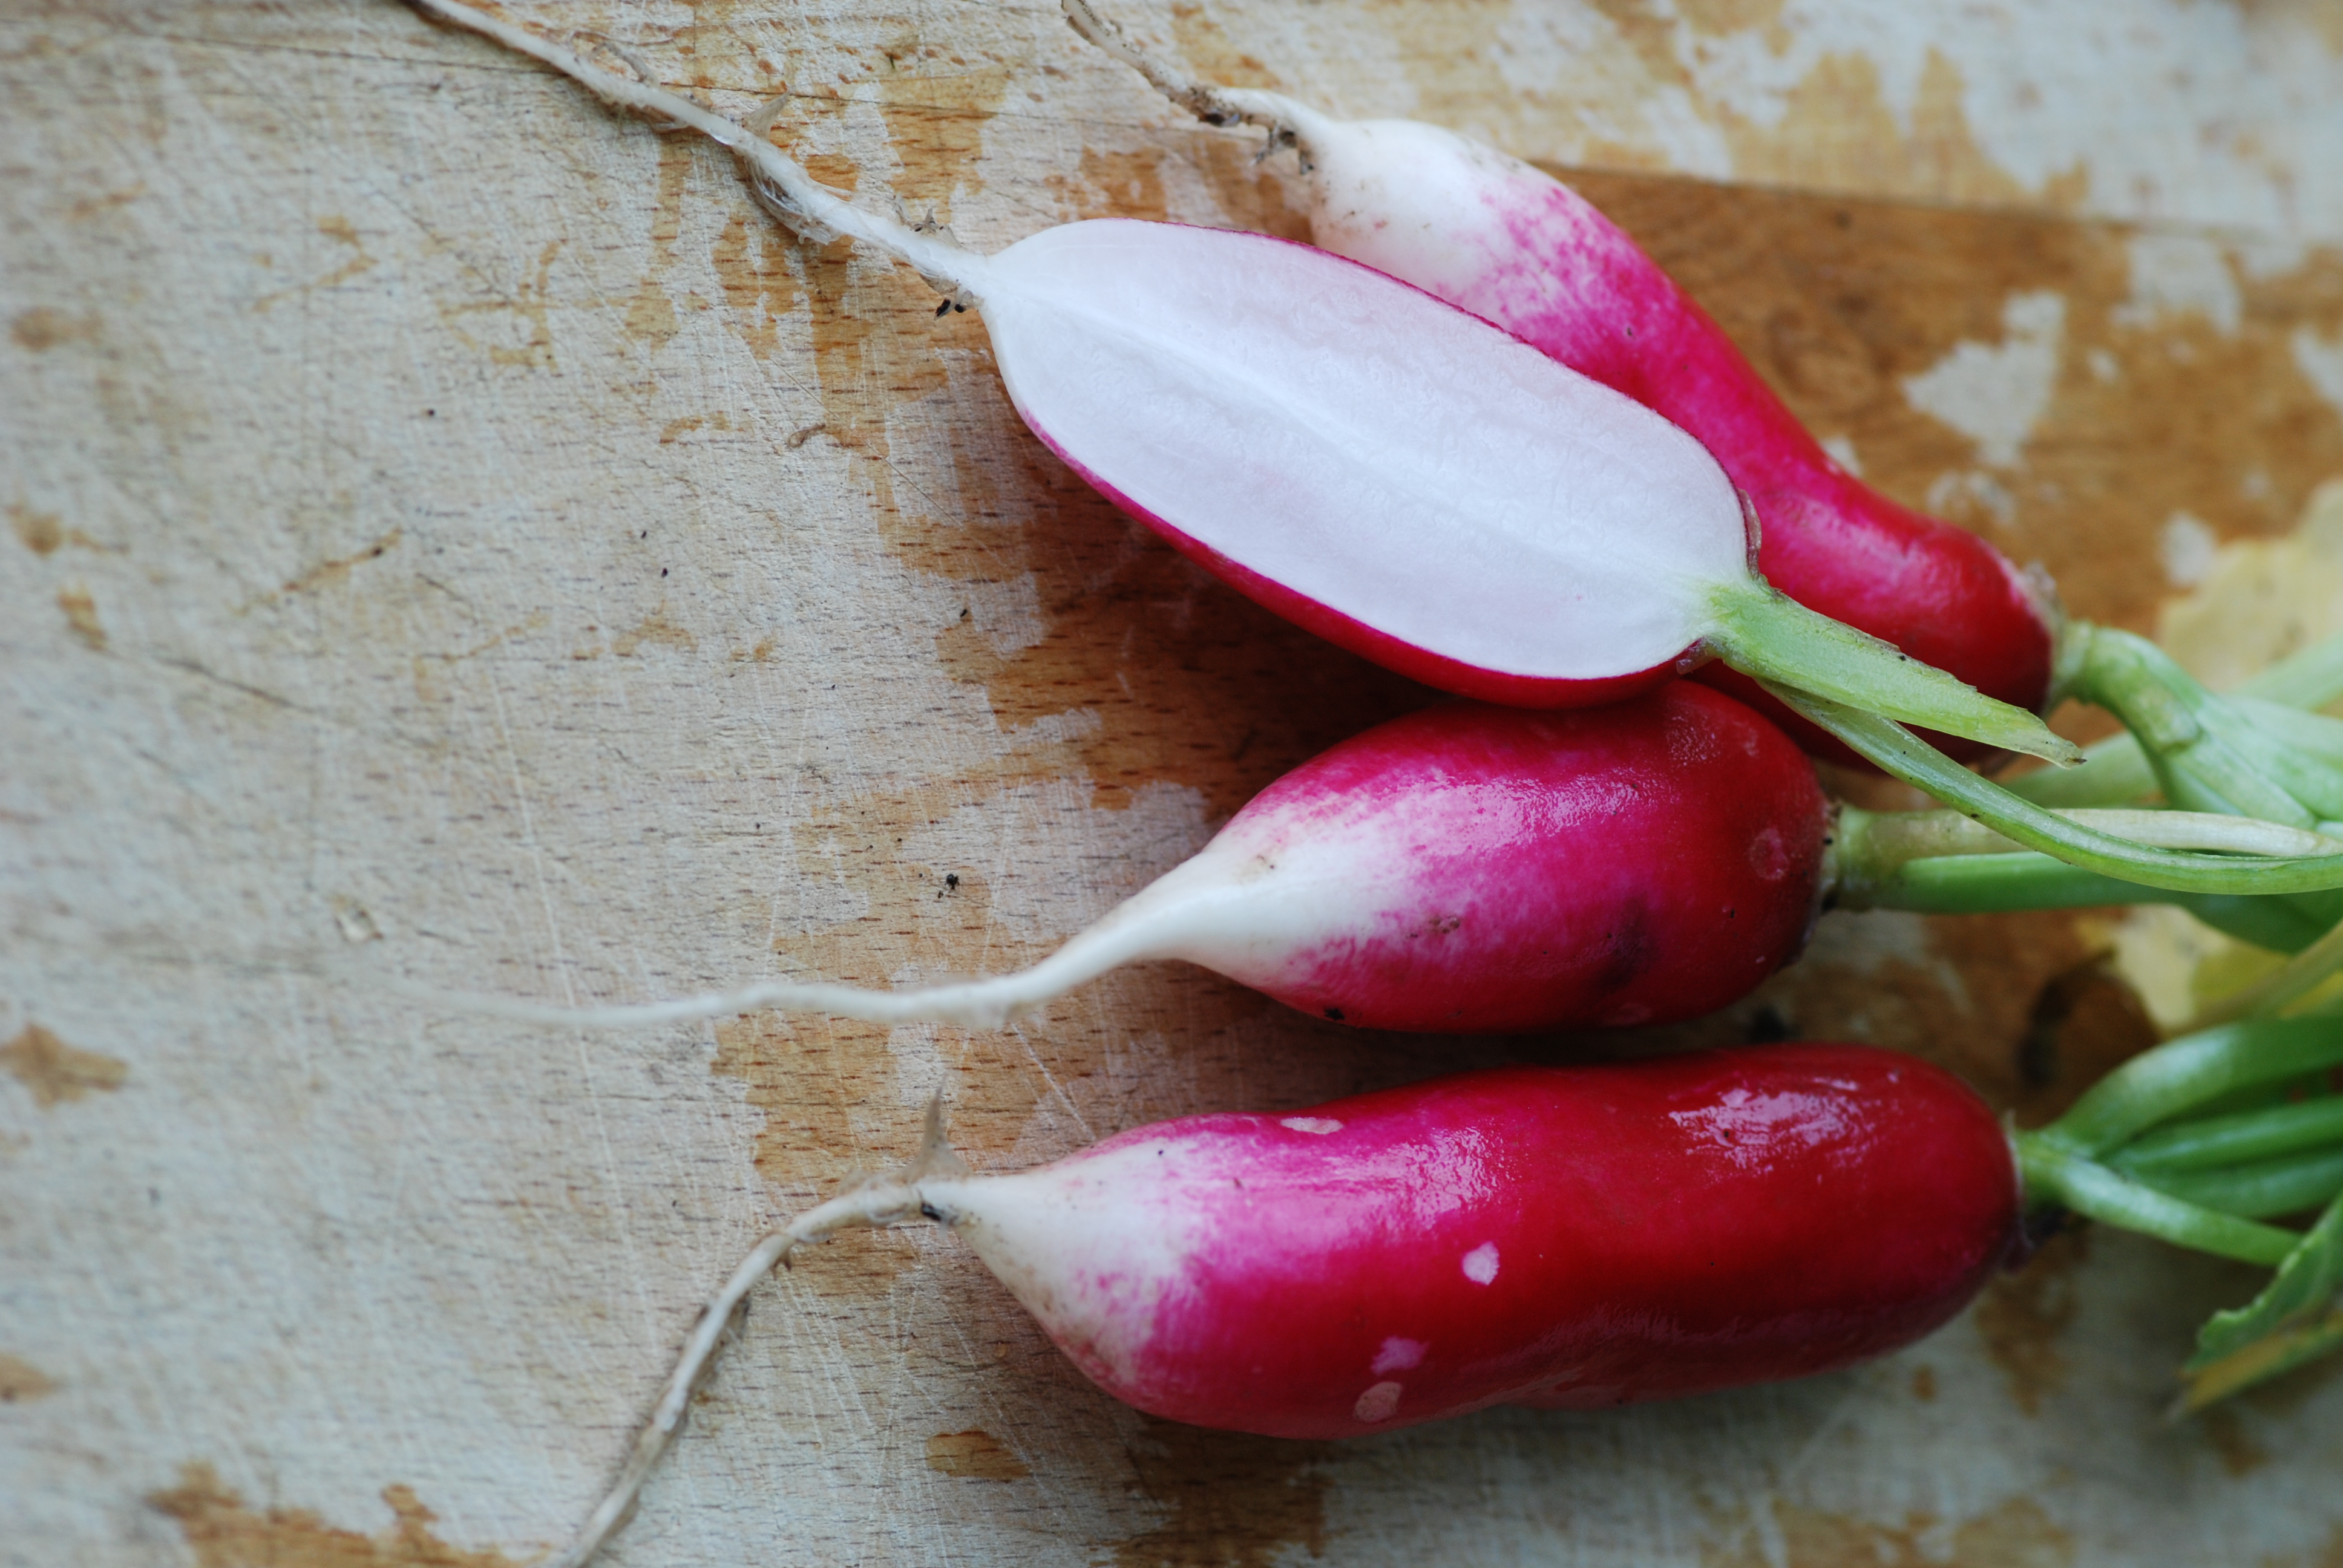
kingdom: Plantae
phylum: Tracheophyta
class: Magnoliopsida
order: Brassicales
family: Brassicaceae
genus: Raphanus
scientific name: Raphanus sativus
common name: Cultivated radish
